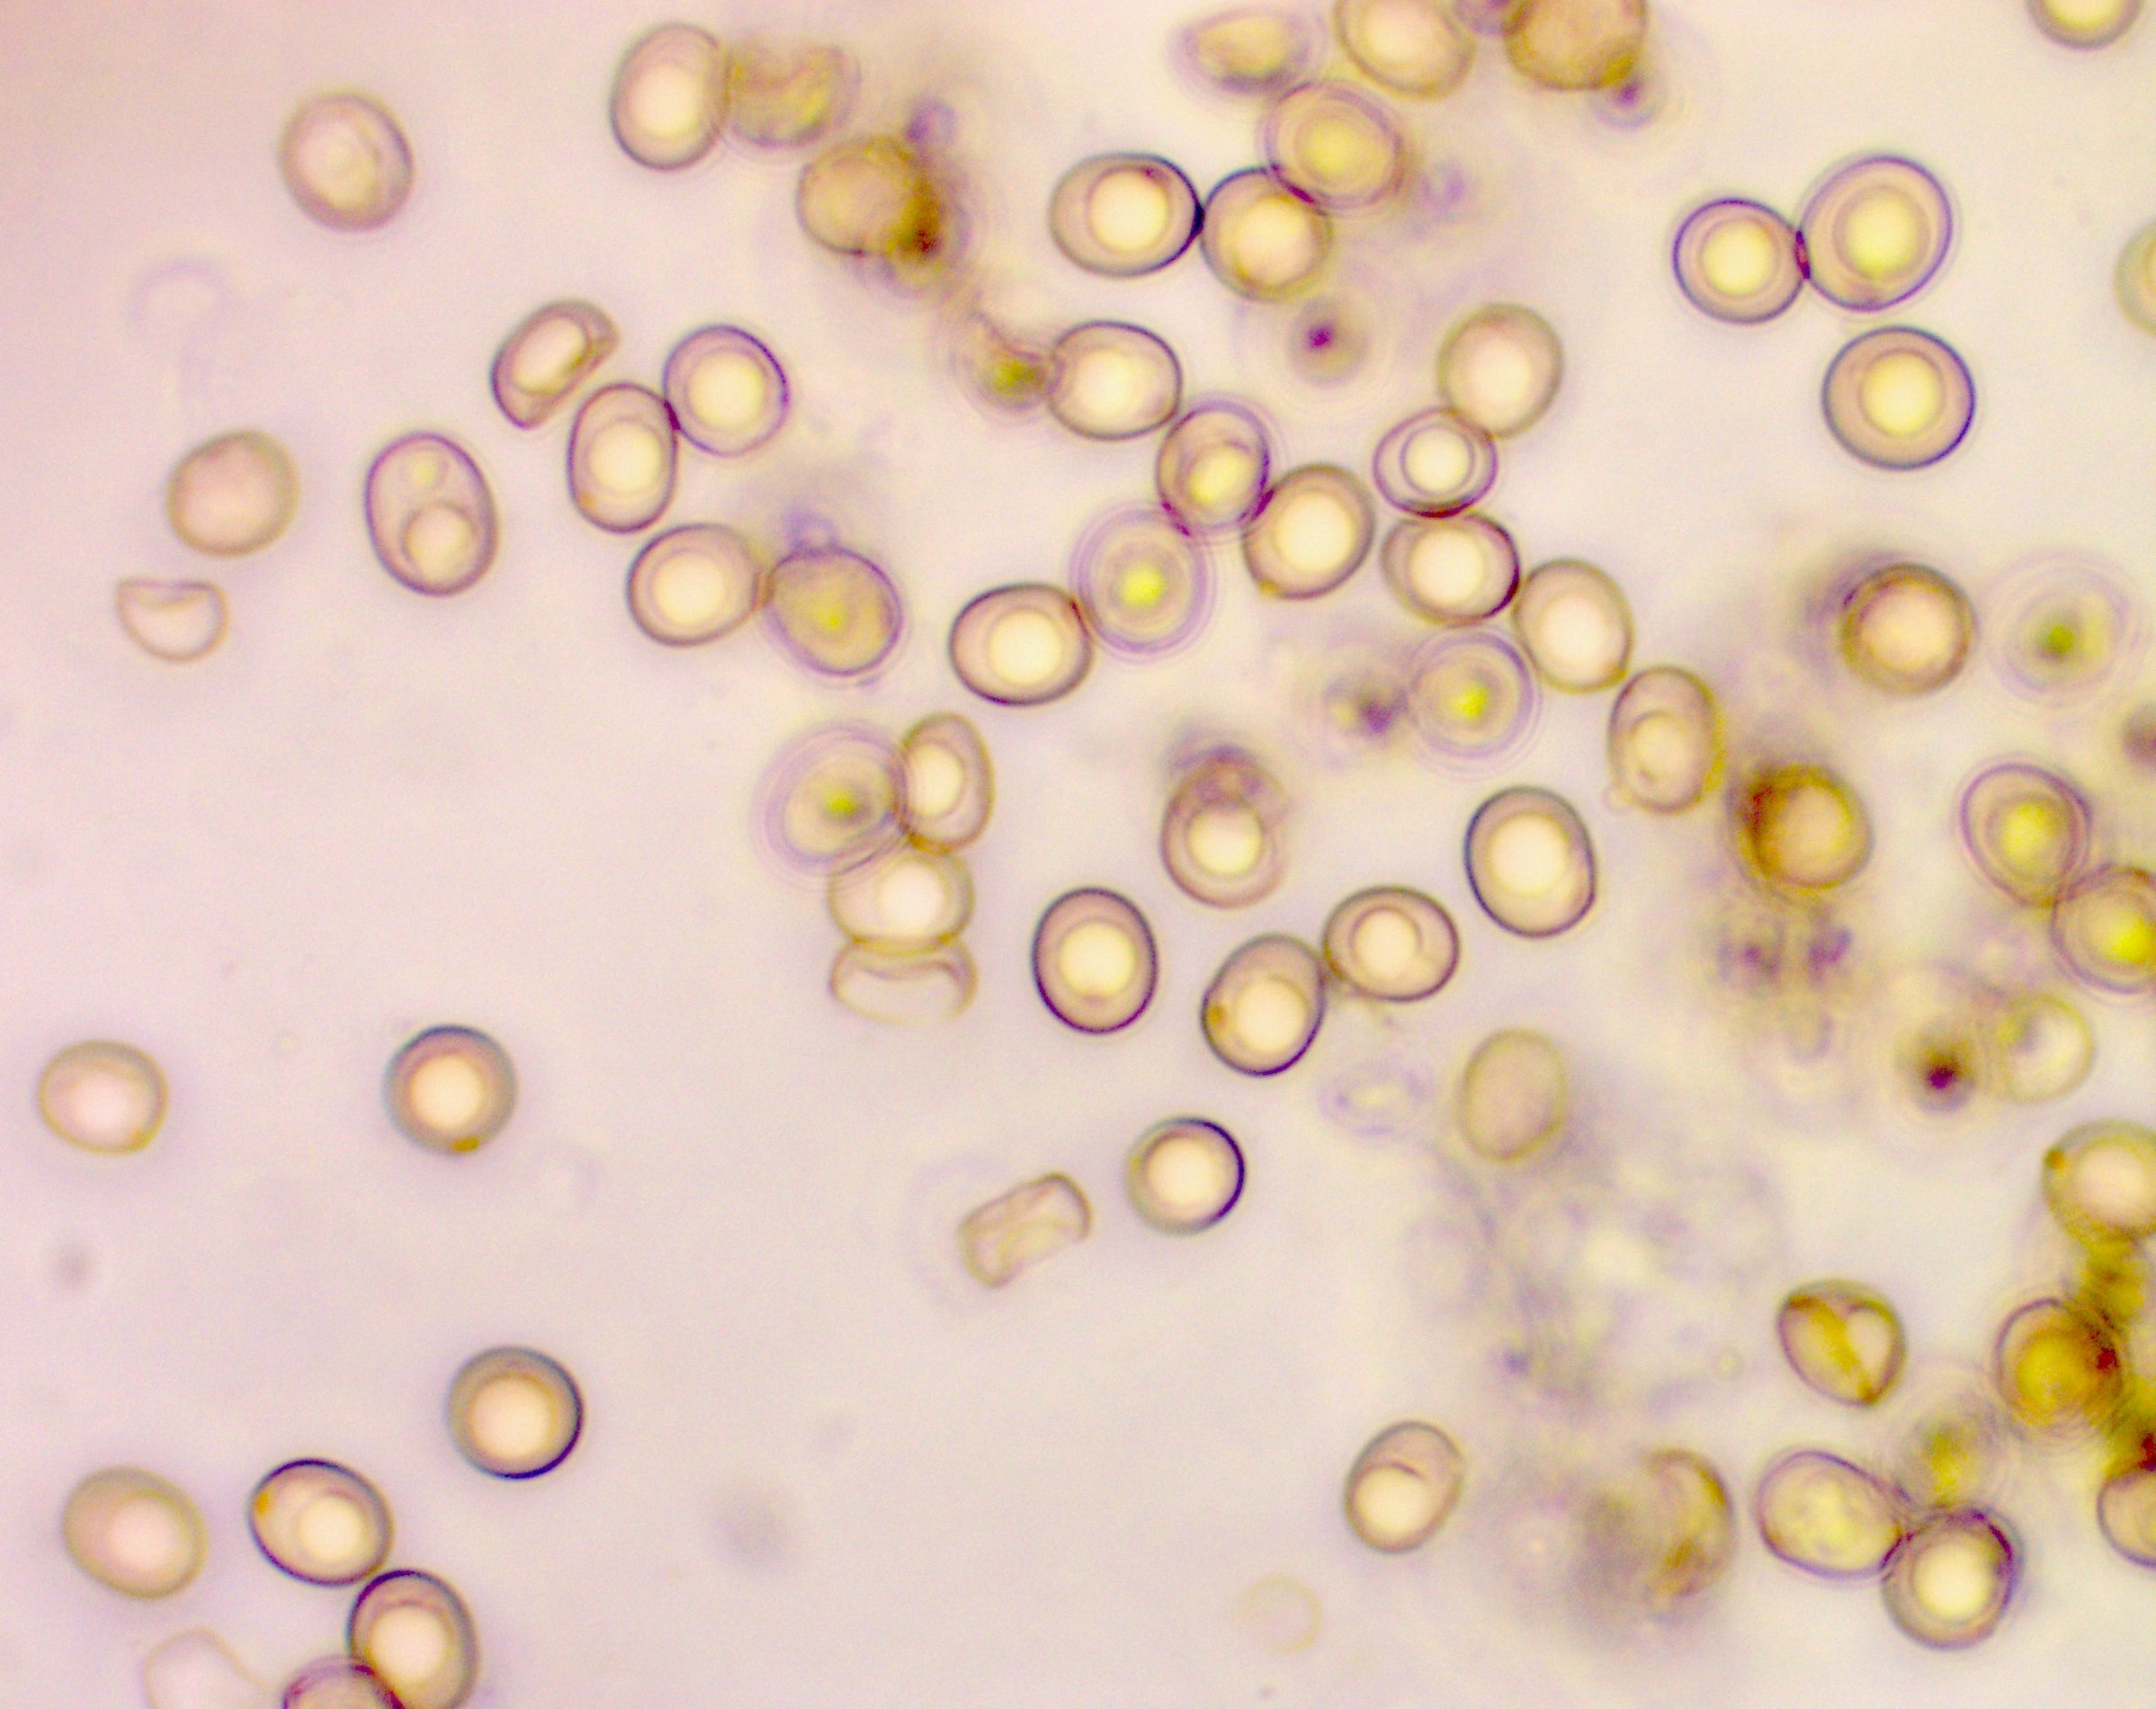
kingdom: Fungi
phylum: Basidiomycota
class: Agaricomycetes
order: Agaricales
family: Inocybaceae
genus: Inocybe
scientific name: Inocybe erinaceomorpha
